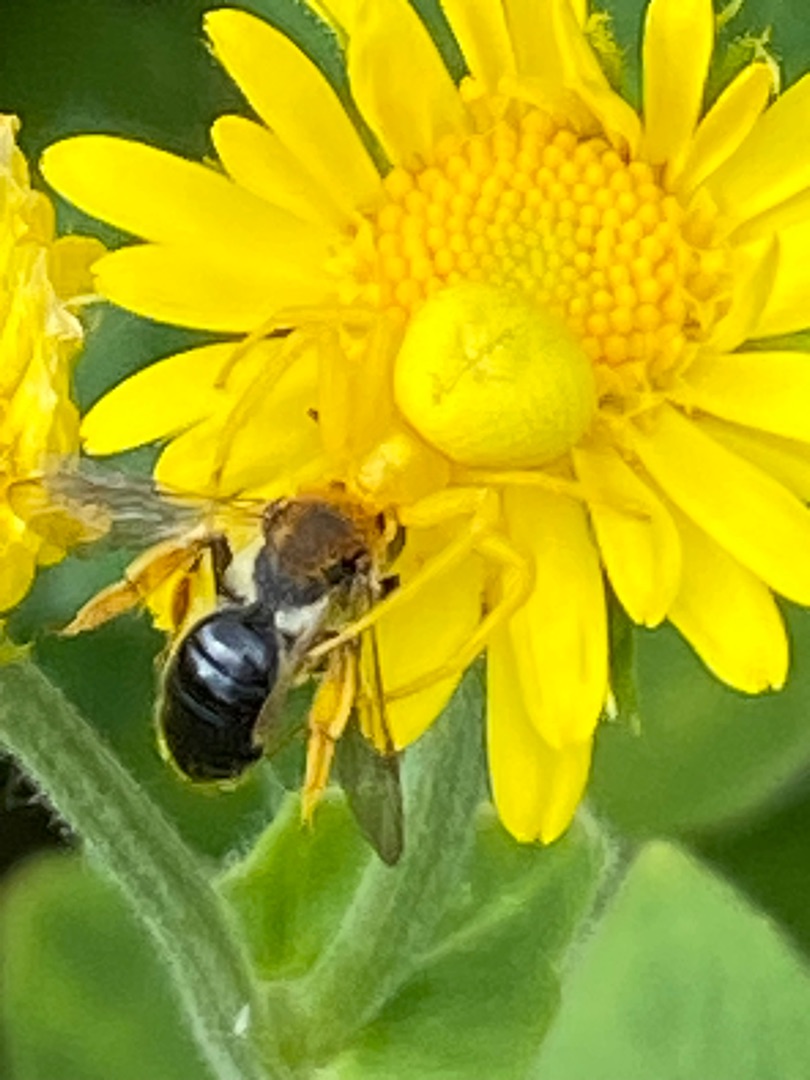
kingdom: Animalia
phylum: Arthropoda
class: Arachnida
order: Araneae
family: Thomisidae
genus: Misumena
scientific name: Misumena vatia
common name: Kamæleonedderkop
